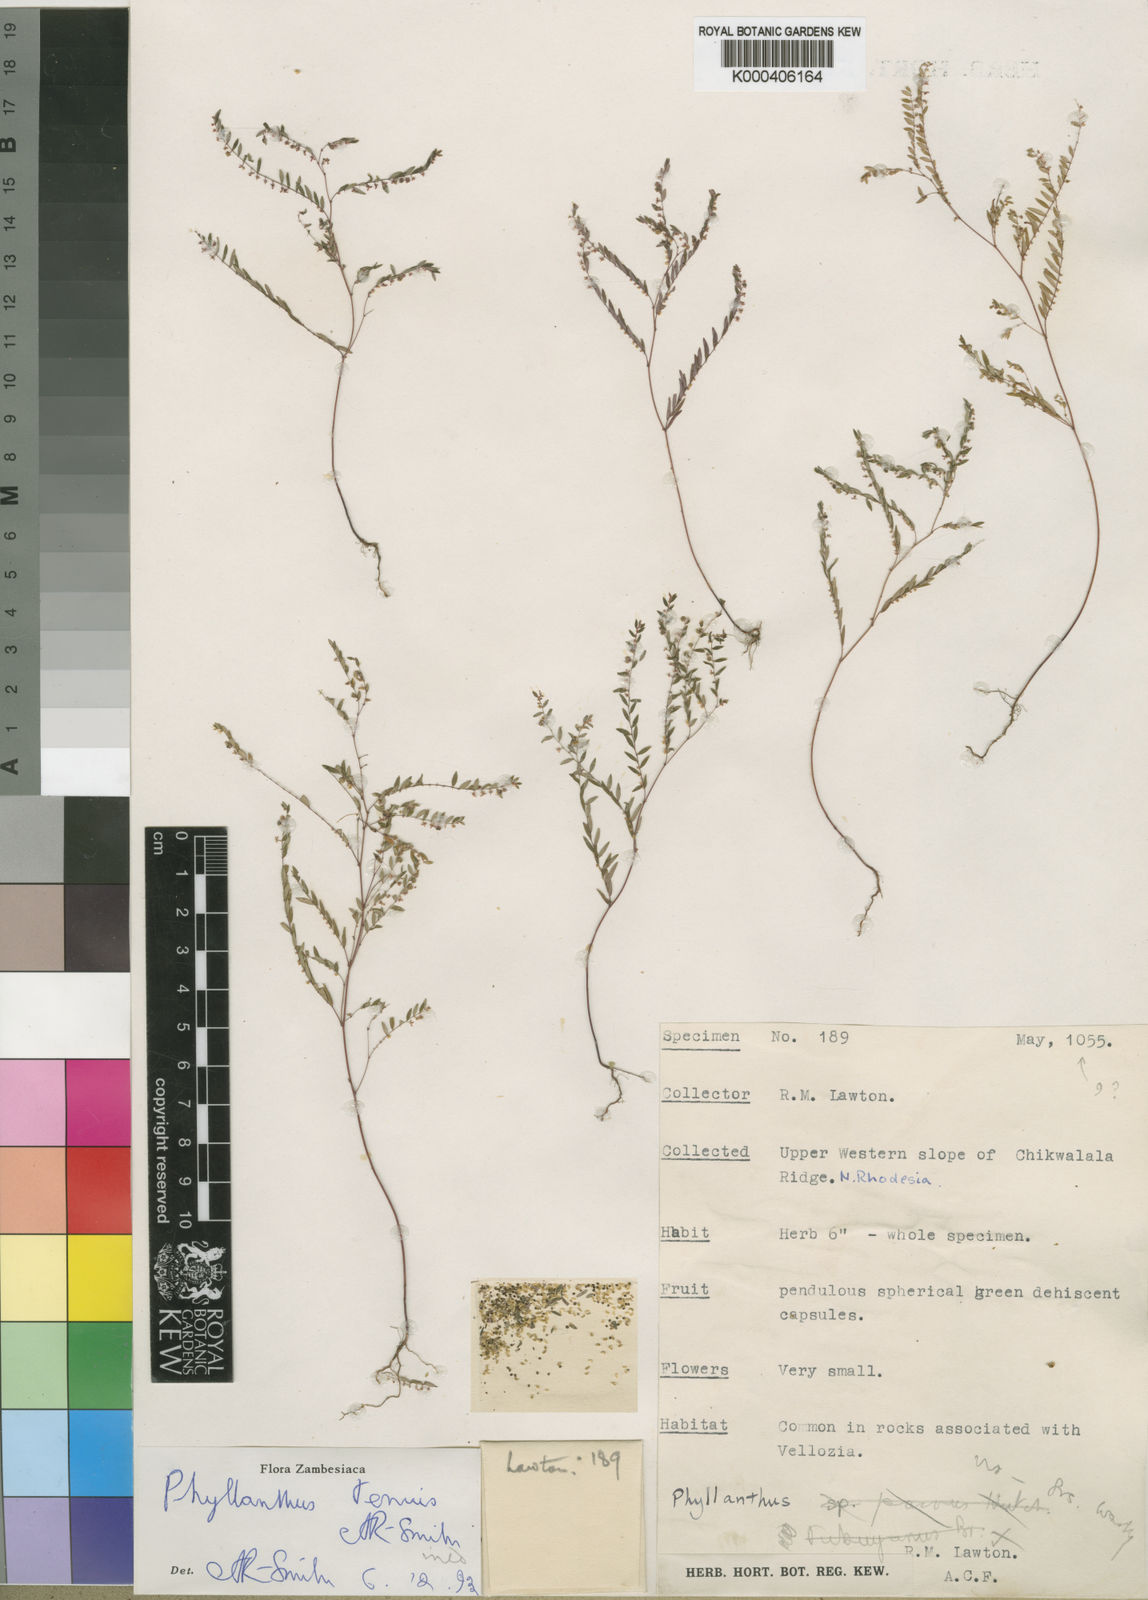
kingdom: Plantae
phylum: Tracheophyta
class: Magnoliopsida
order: Malpighiales
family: Phyllanthaceae
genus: Phyllanthus
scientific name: Phyllanthus
